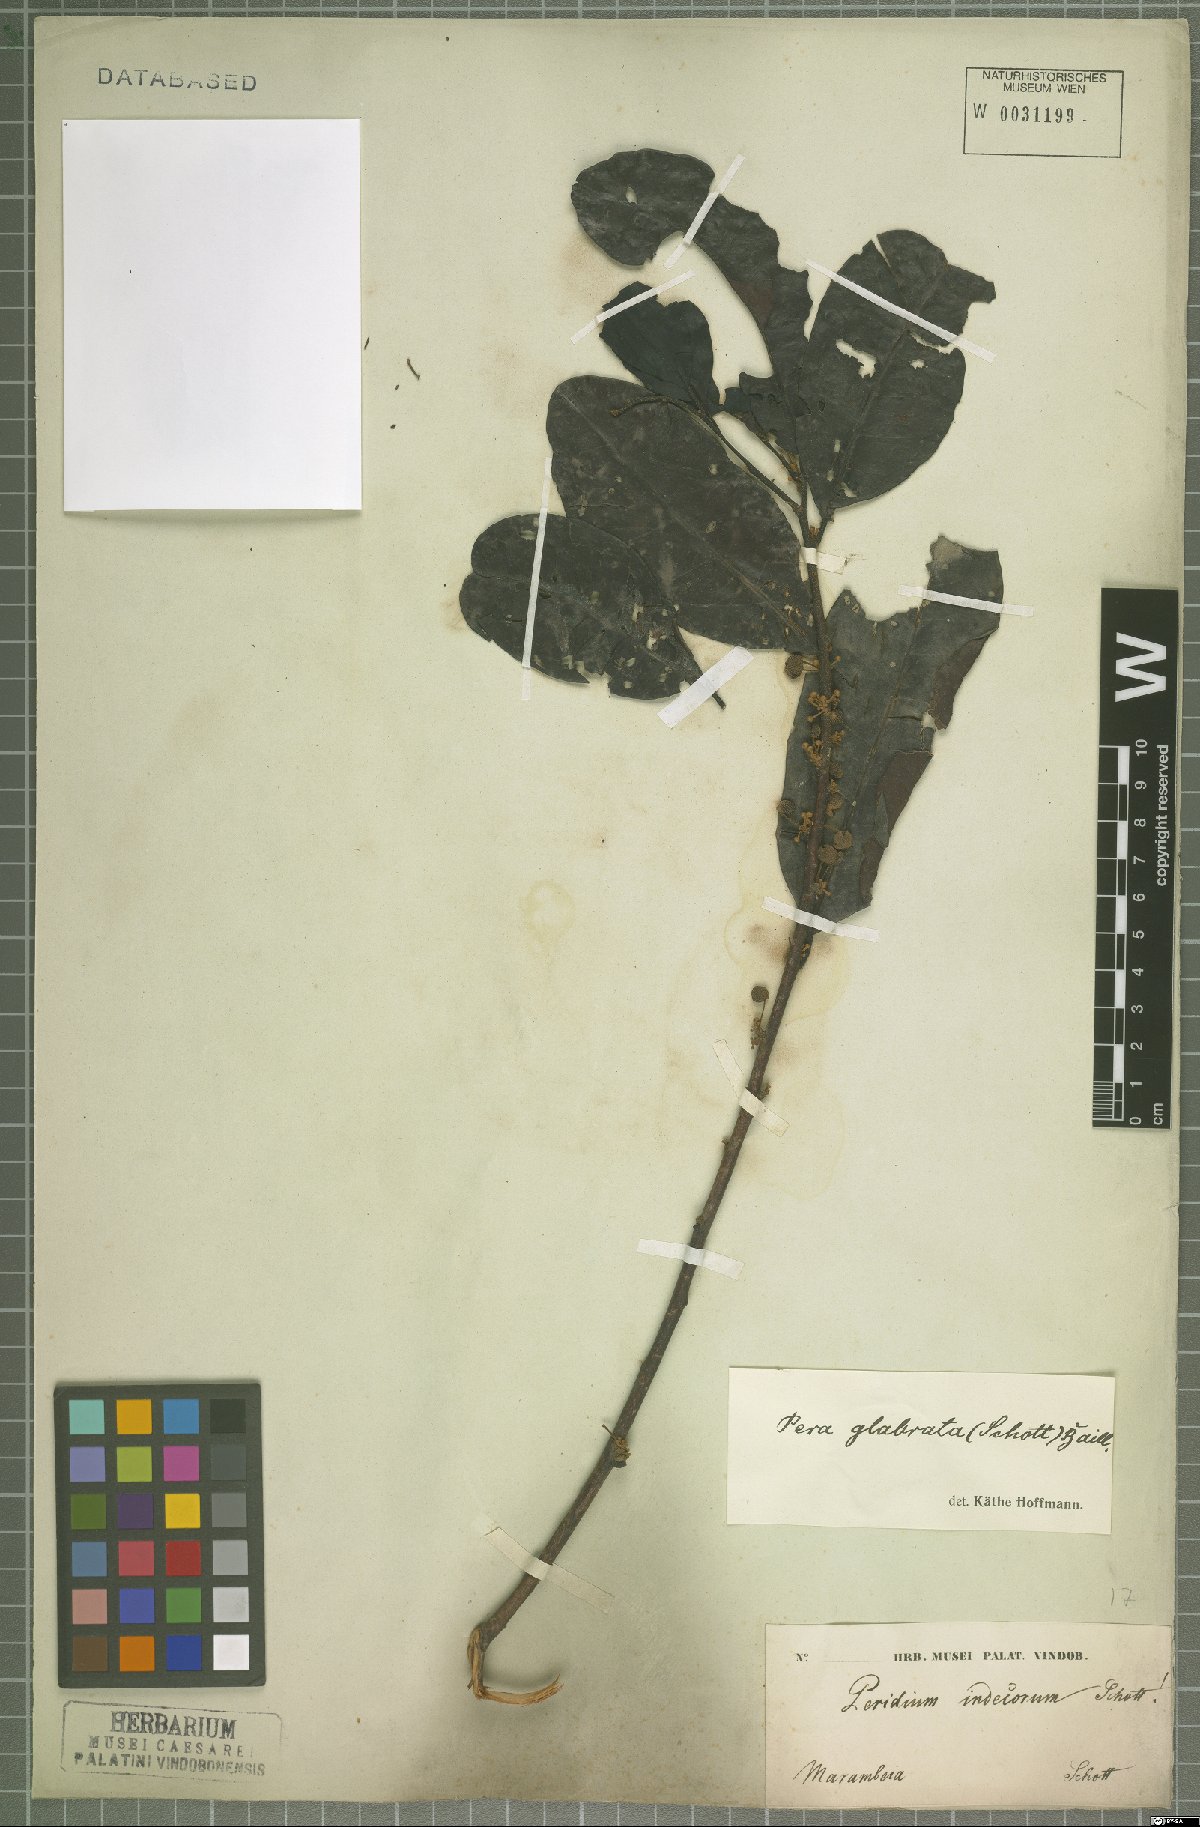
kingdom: Plantae
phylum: Tracheophyta
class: Magnoliopsida
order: Malpighiales
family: Peraceae
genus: Pera
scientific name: Pera glabrata
